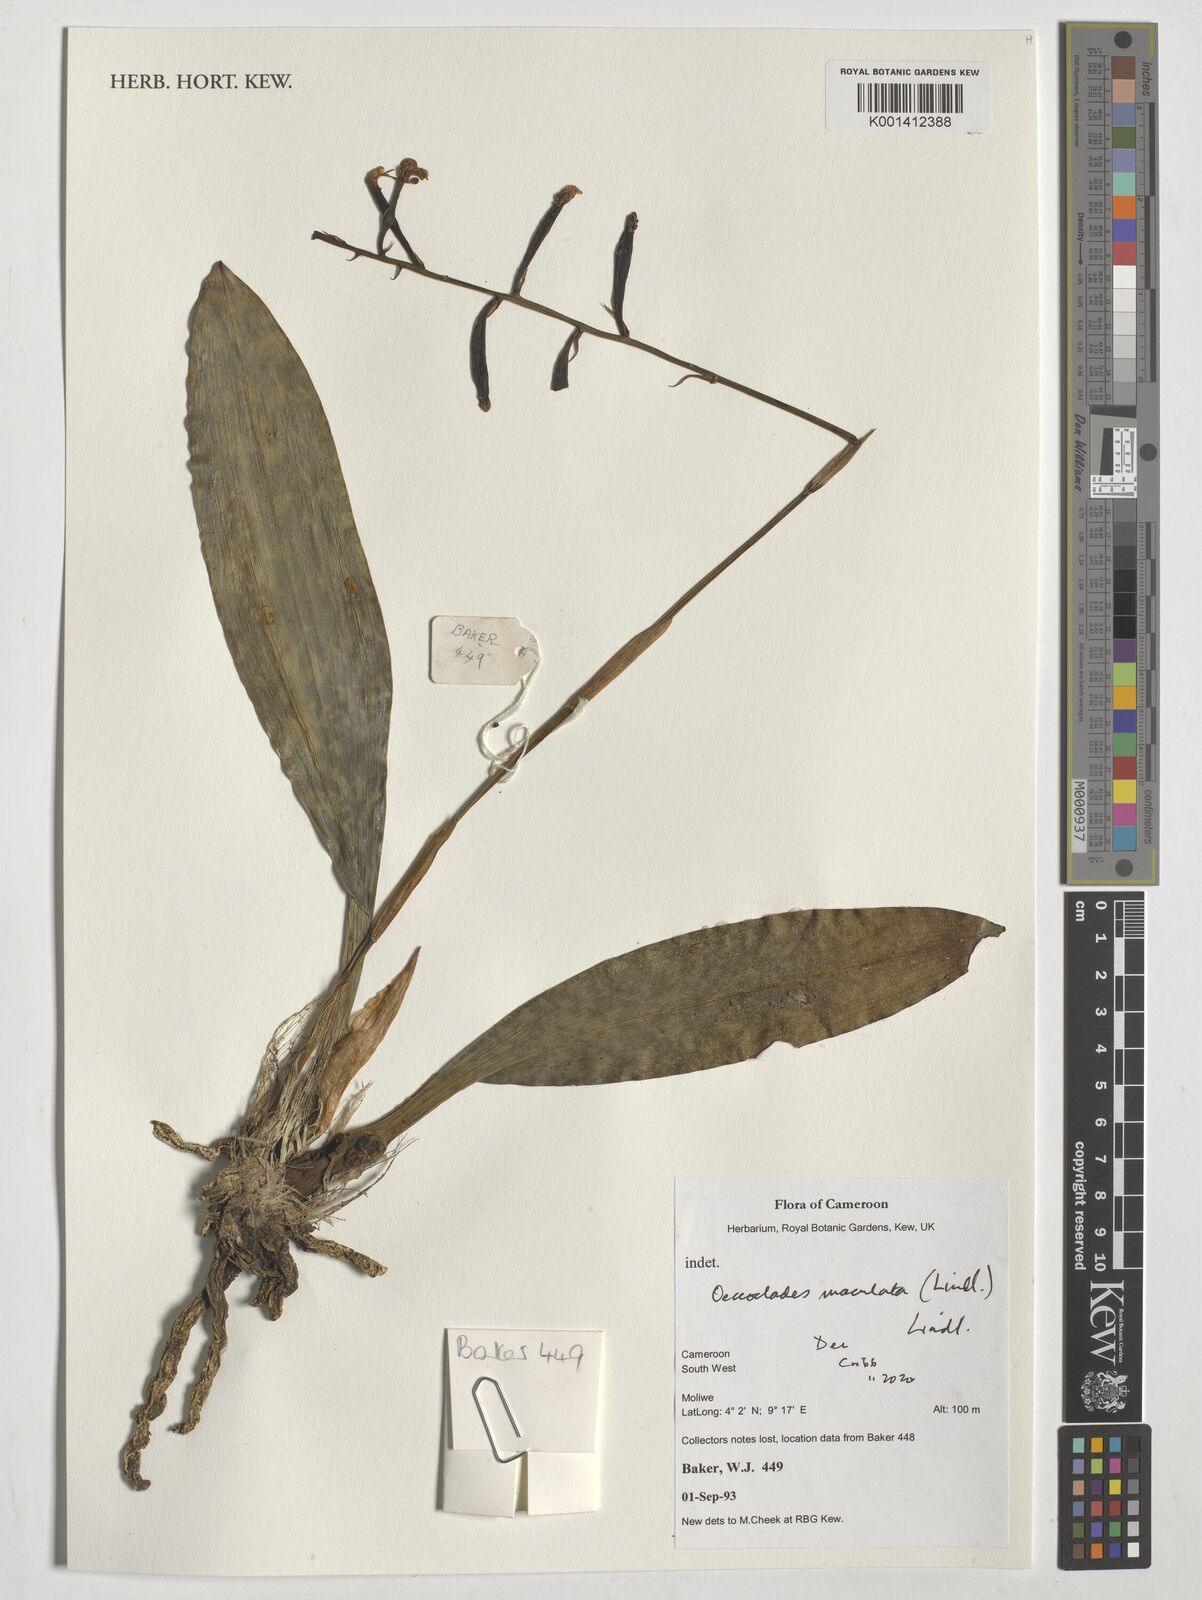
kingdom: Plantae
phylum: Tracheophyta
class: Liliopsida
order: Asparagales
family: Orchidaceae
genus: Eulophia
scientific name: Eulophia maculata
